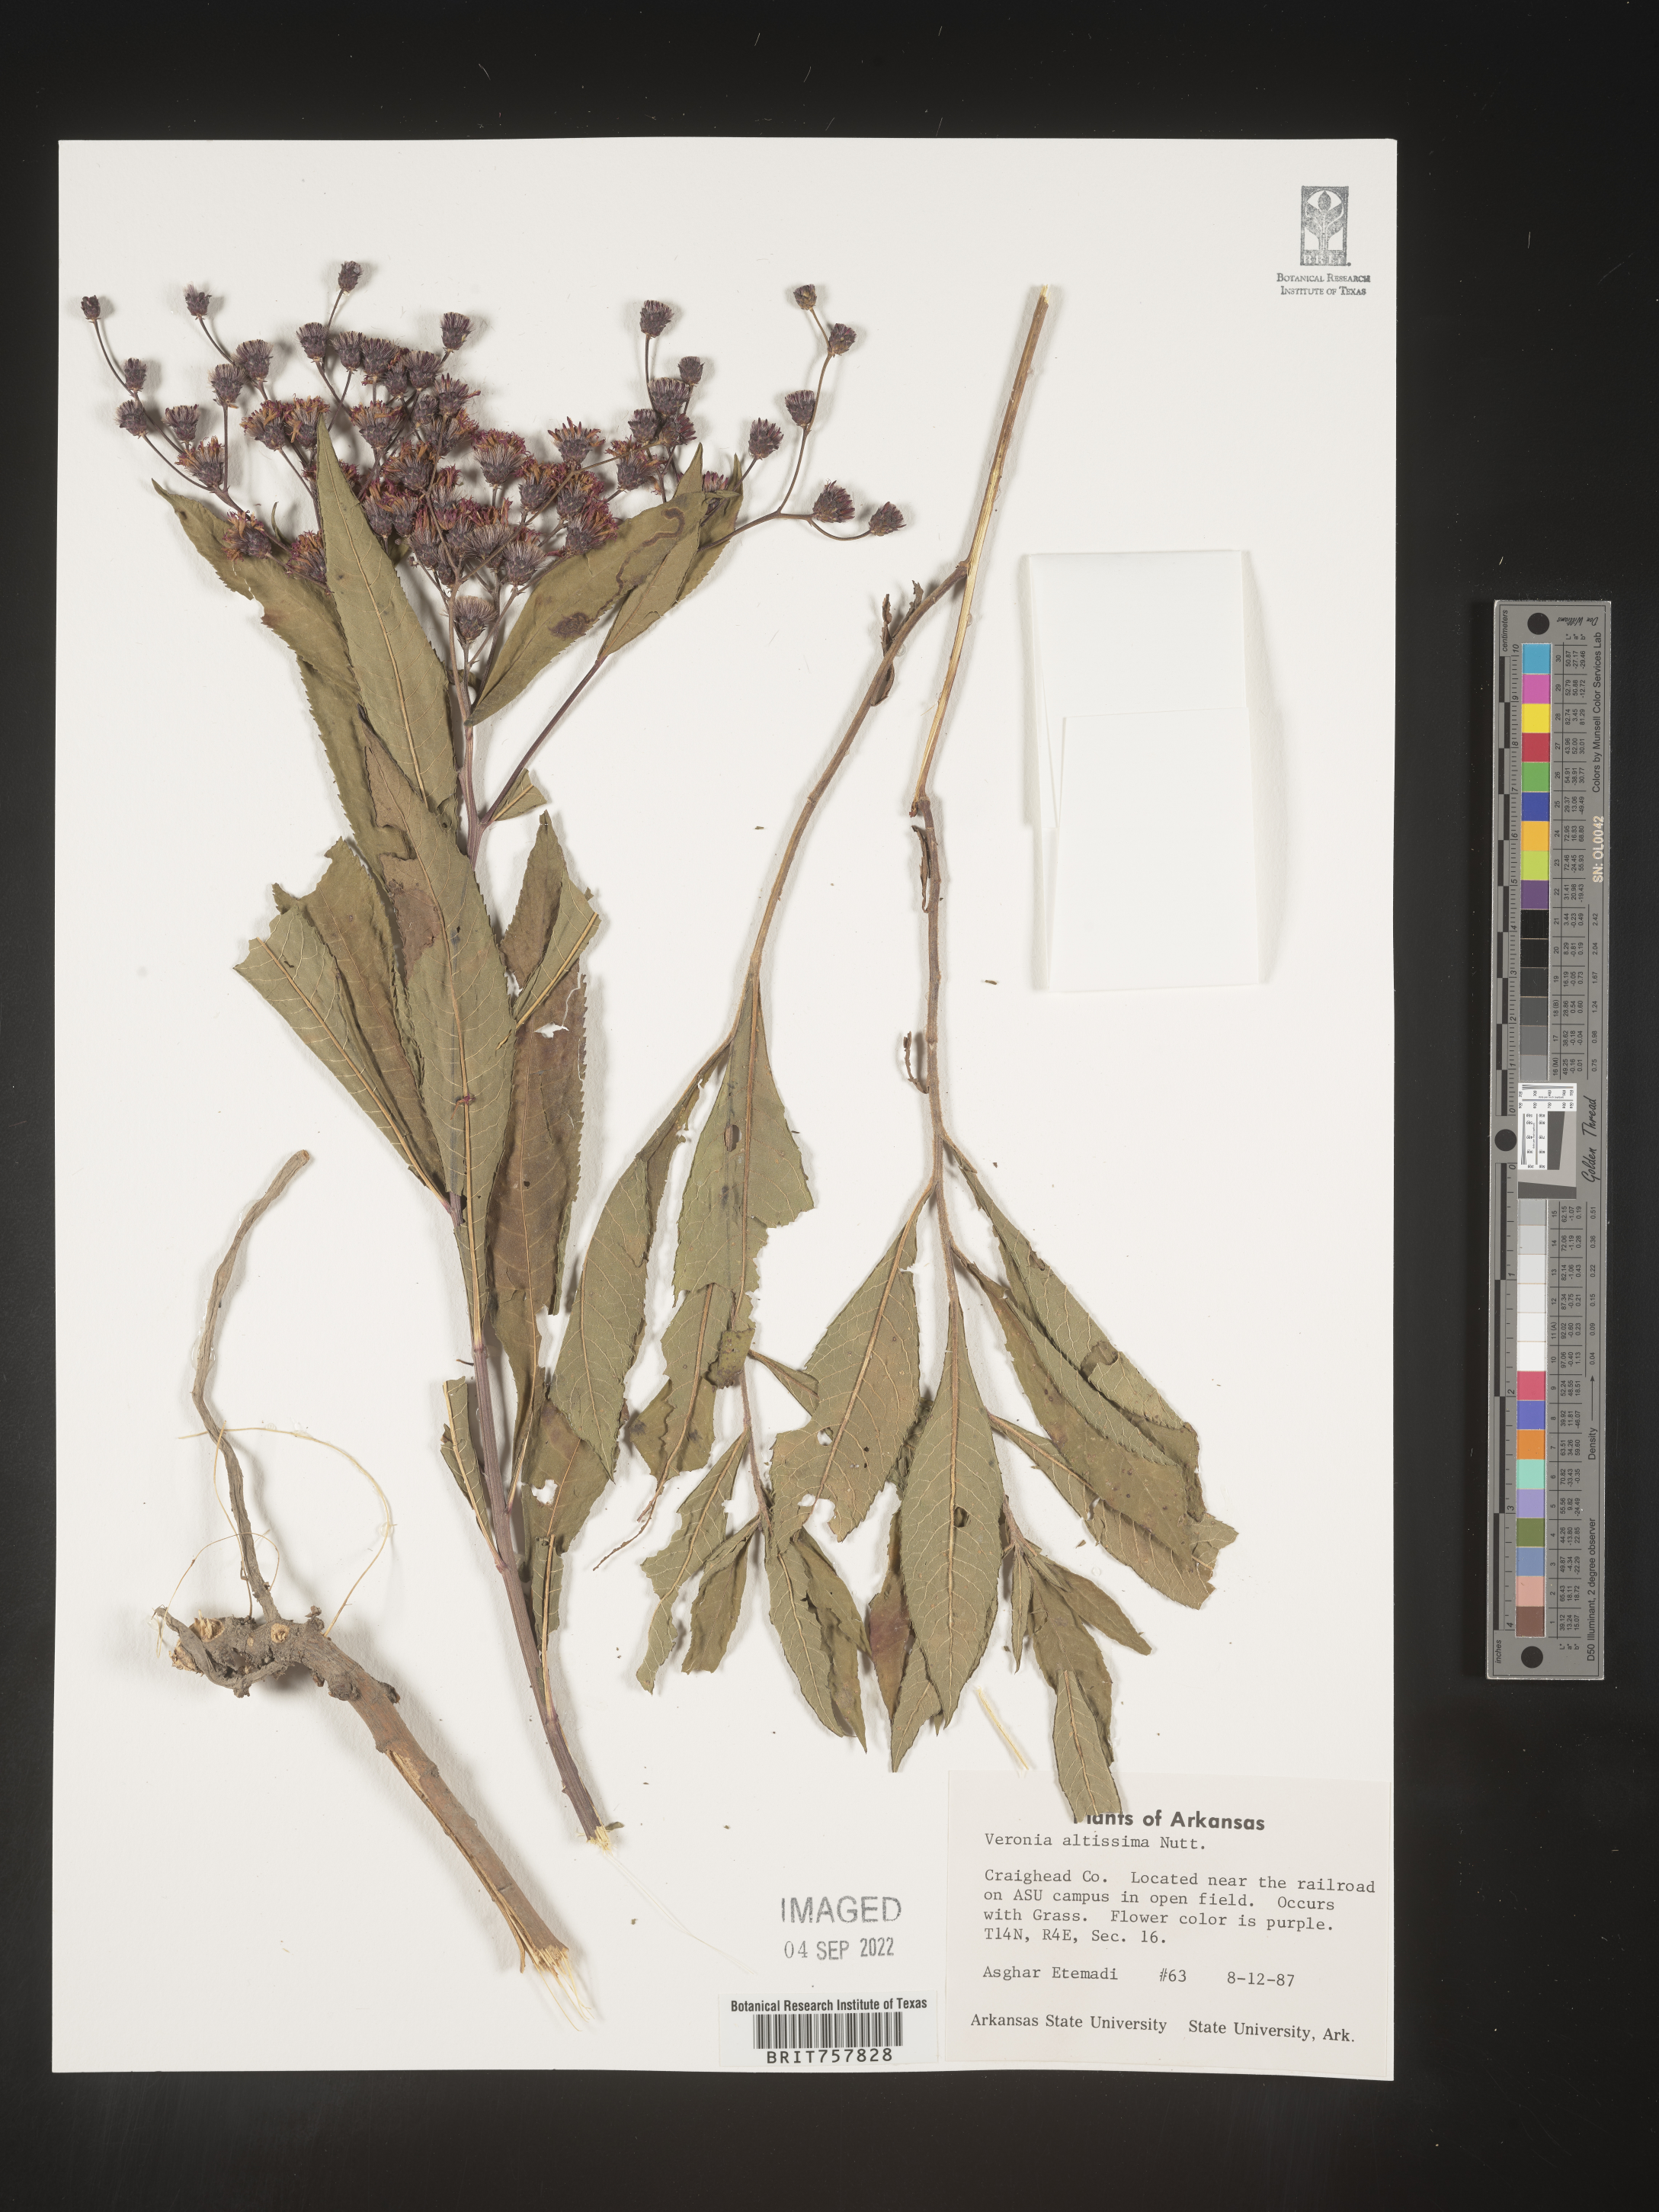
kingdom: Plantae
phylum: Tracheophyta
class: Magnoliopsida
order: Asterales
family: Asteraceae
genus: Vernonia
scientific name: Vernonia gigantea
